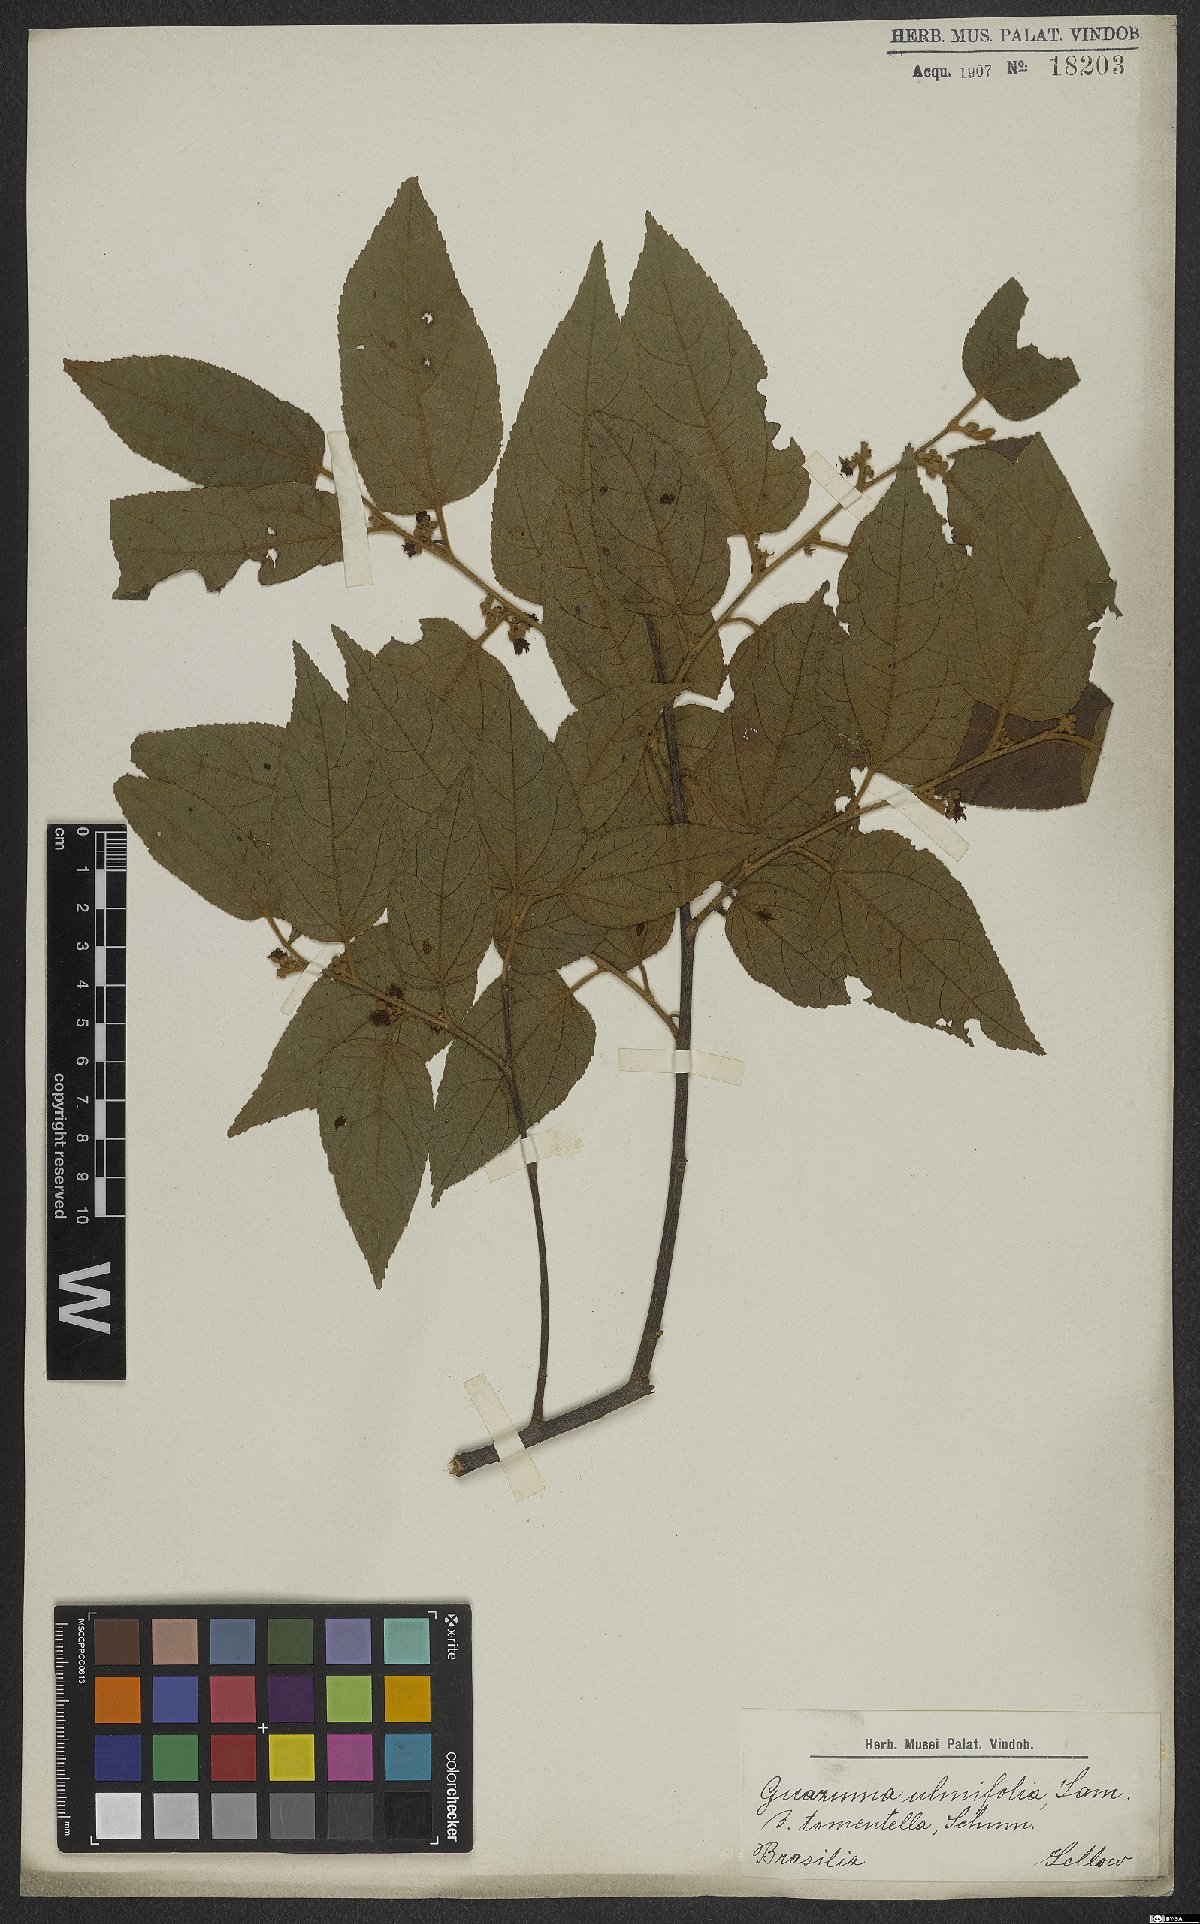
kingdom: Plantae
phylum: Tracheophyta
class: Magnoliopsida
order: Malvales
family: Malvaceae
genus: Guazuma
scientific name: Guazuma ulmifolia
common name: Bastard-cedar
